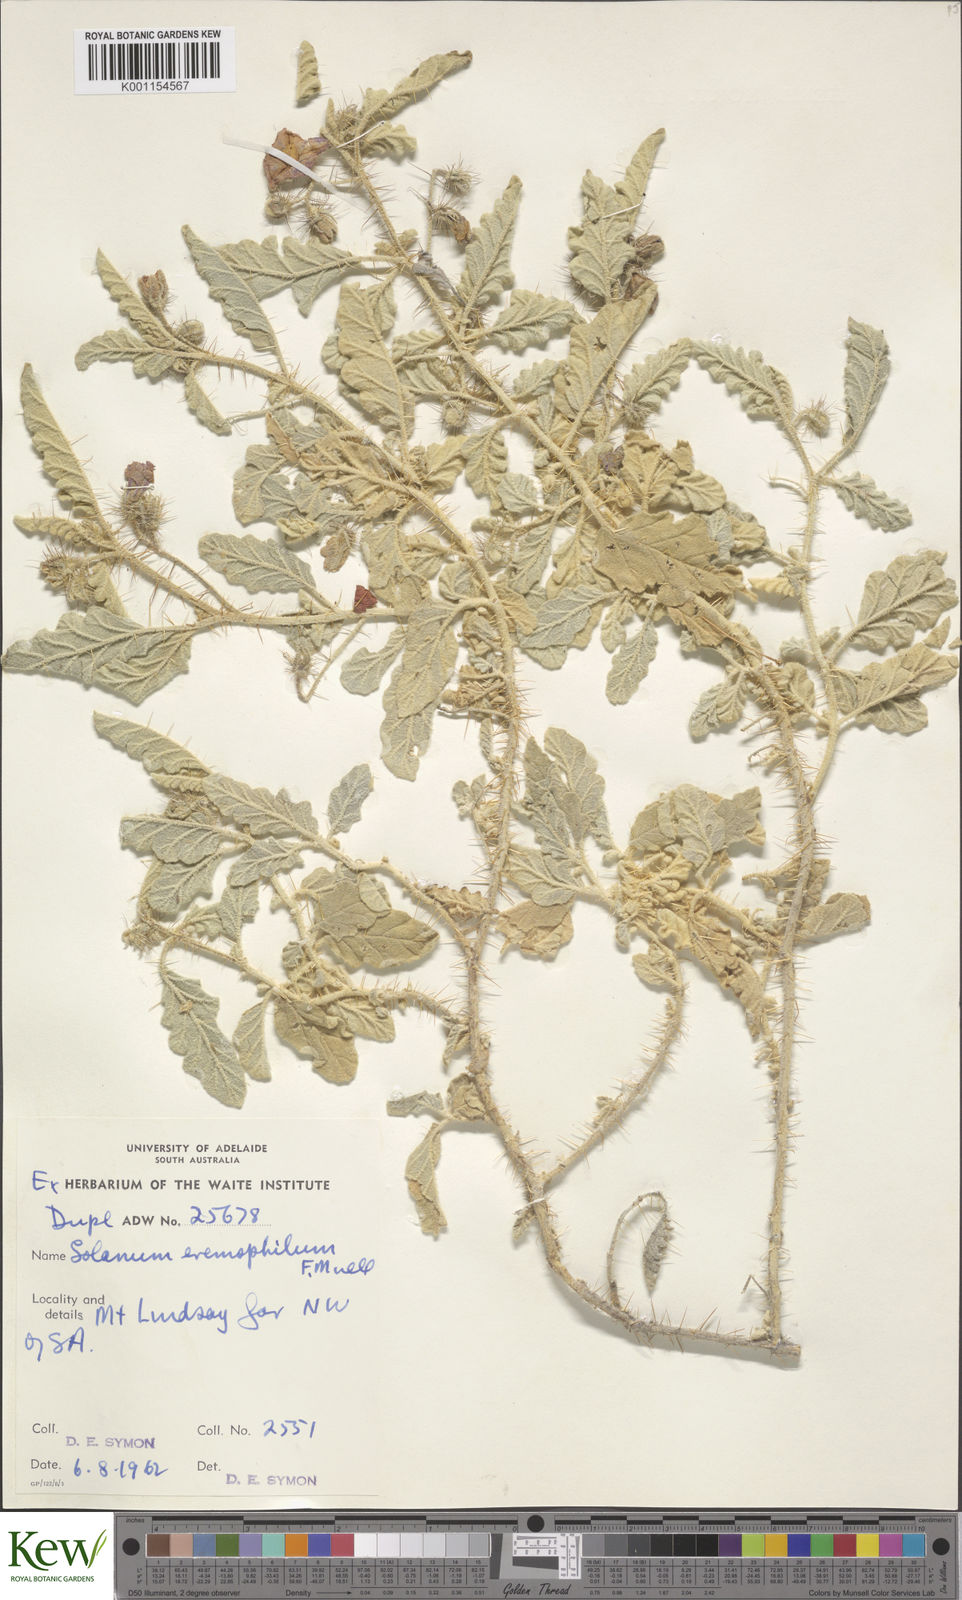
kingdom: Plantae
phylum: Tracheophyta
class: Magnoliopsida
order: Solanales
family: Solanaceae
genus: Solanum
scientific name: Solanum eremophilum
